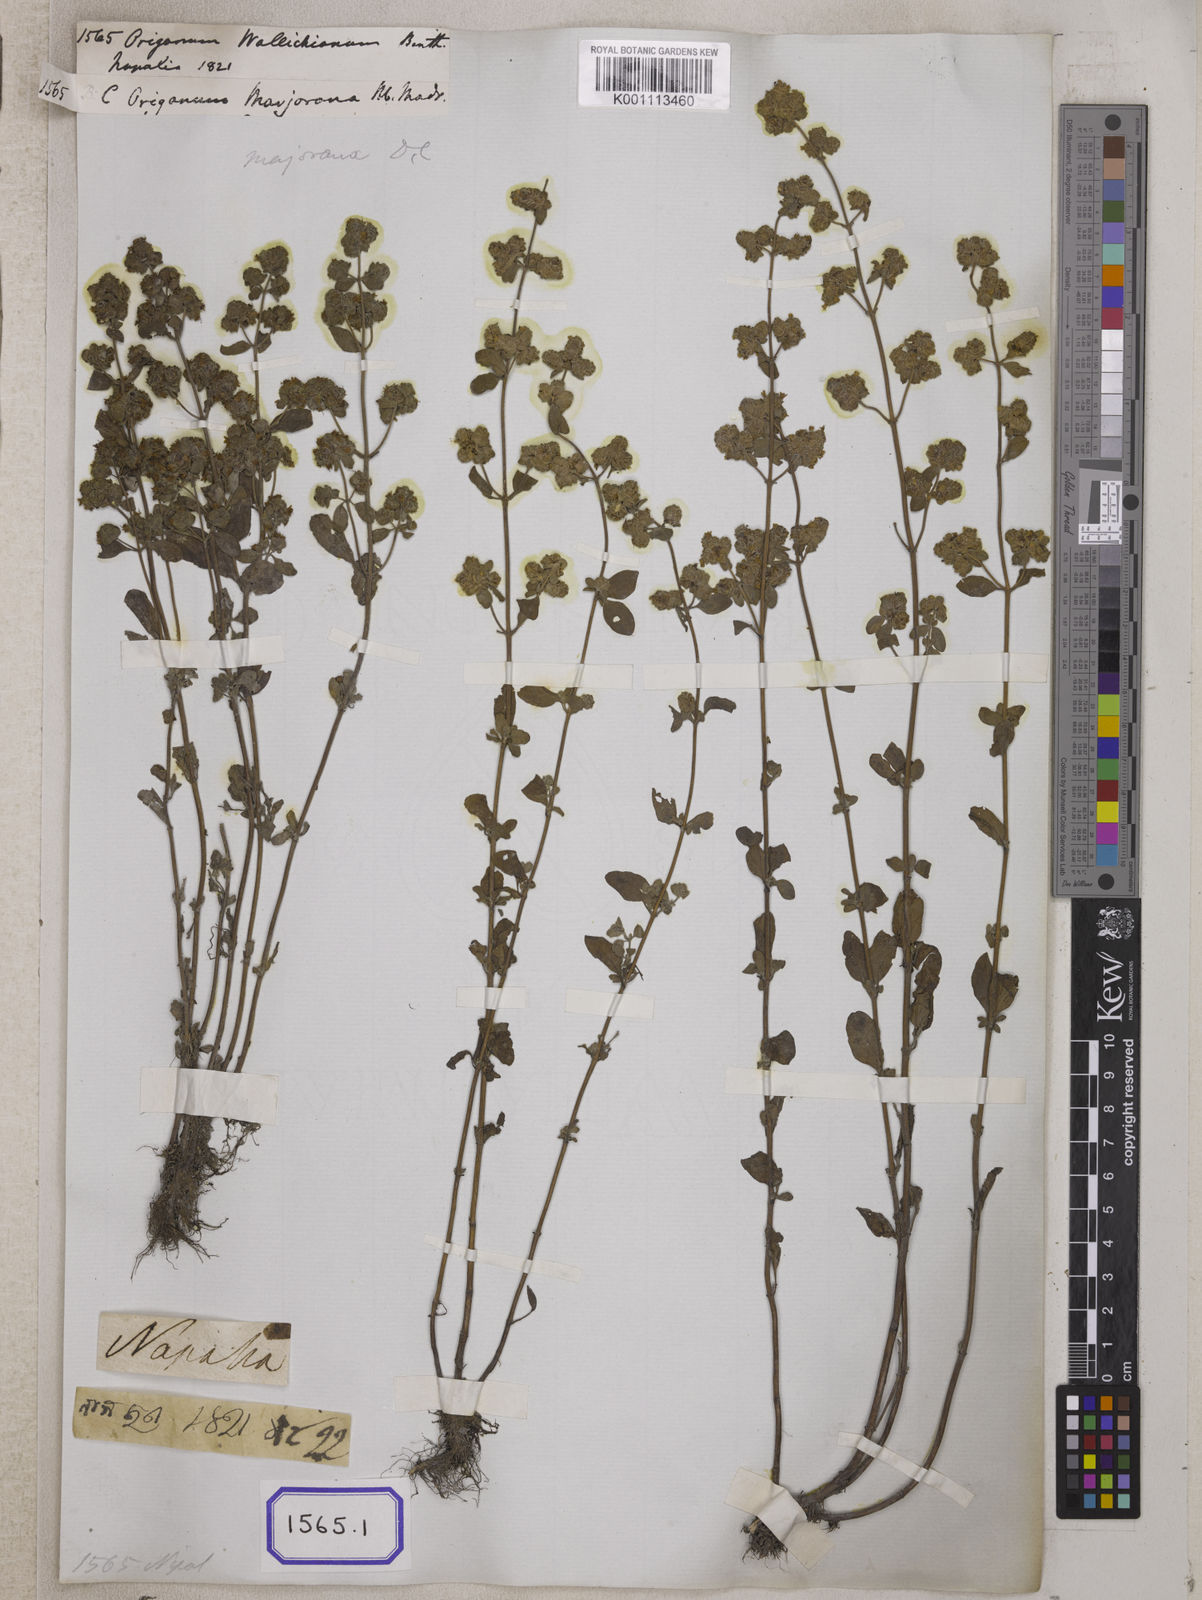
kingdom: Plantae
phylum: Tracheophyta
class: Magnoliopsida
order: Lamiales
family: Lamiaceae
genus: Origanum
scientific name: Origanum
